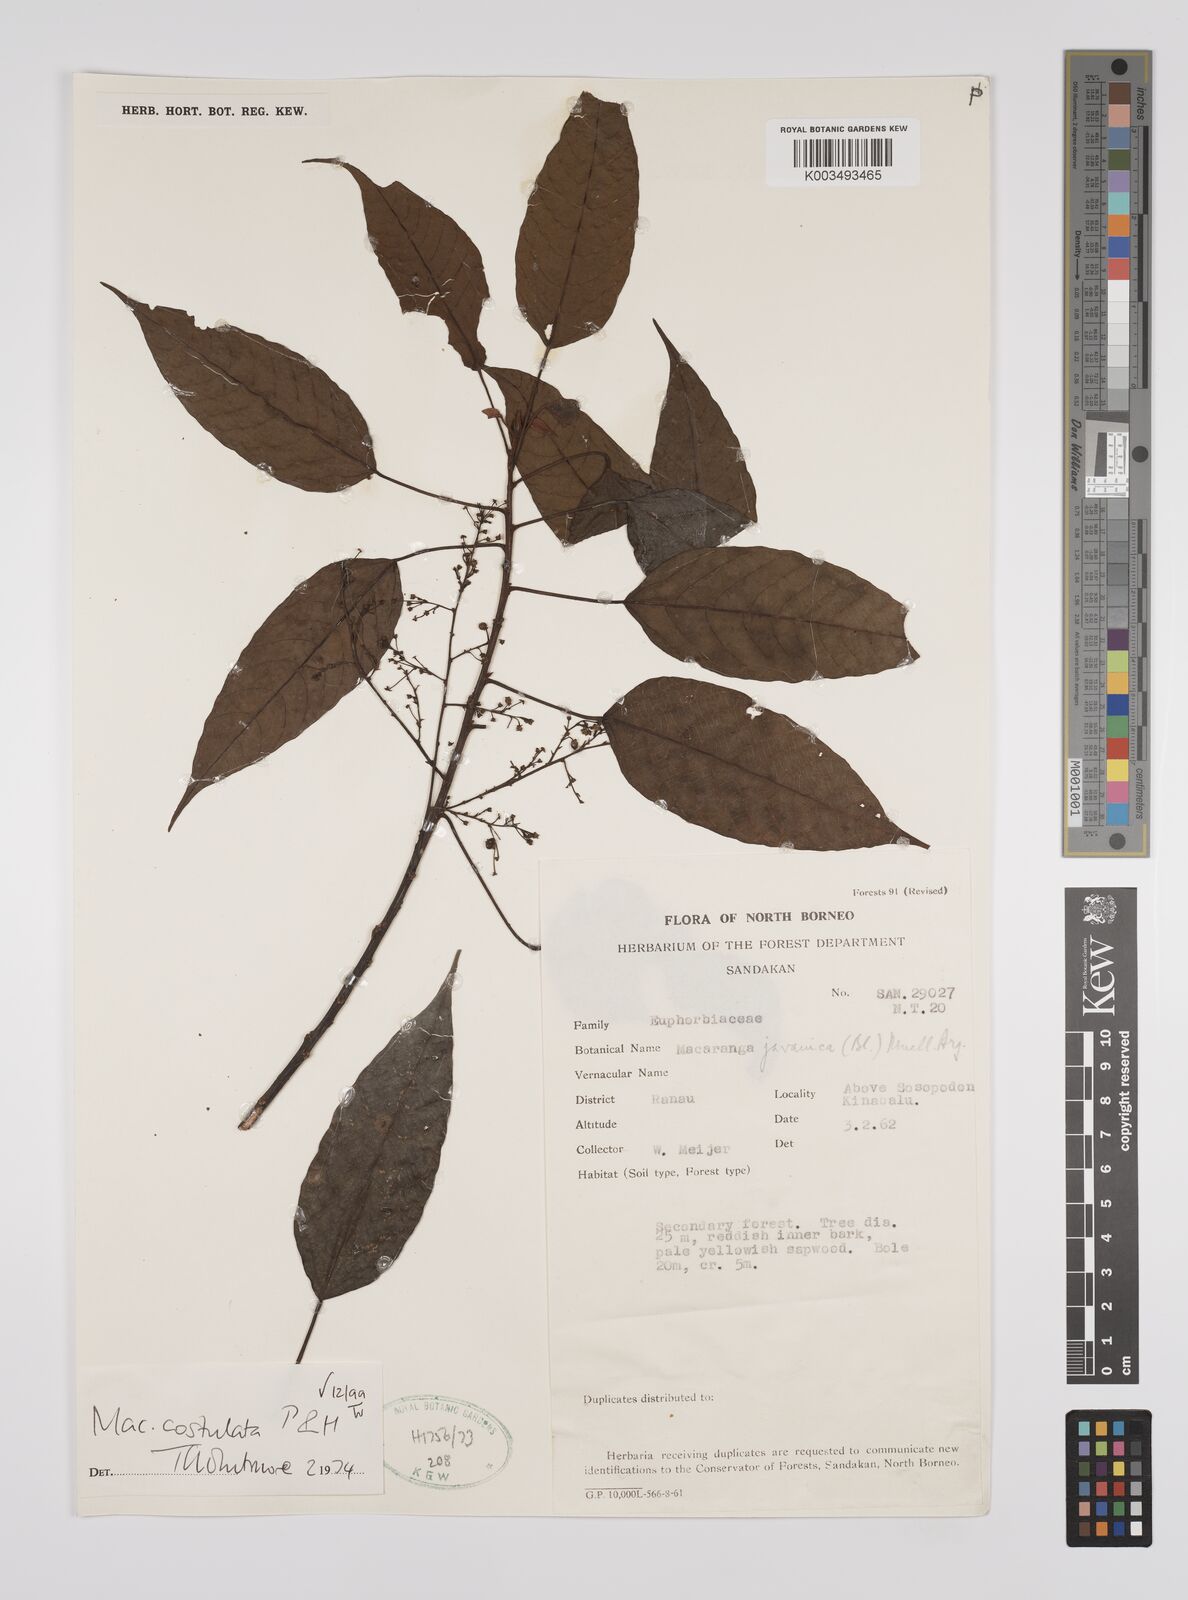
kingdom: Plantae
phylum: Tracheophyta
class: Magnoliopsida
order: Malpighiales
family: Euphorbiaceae
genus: Macaranga
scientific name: Macaranga costulata
